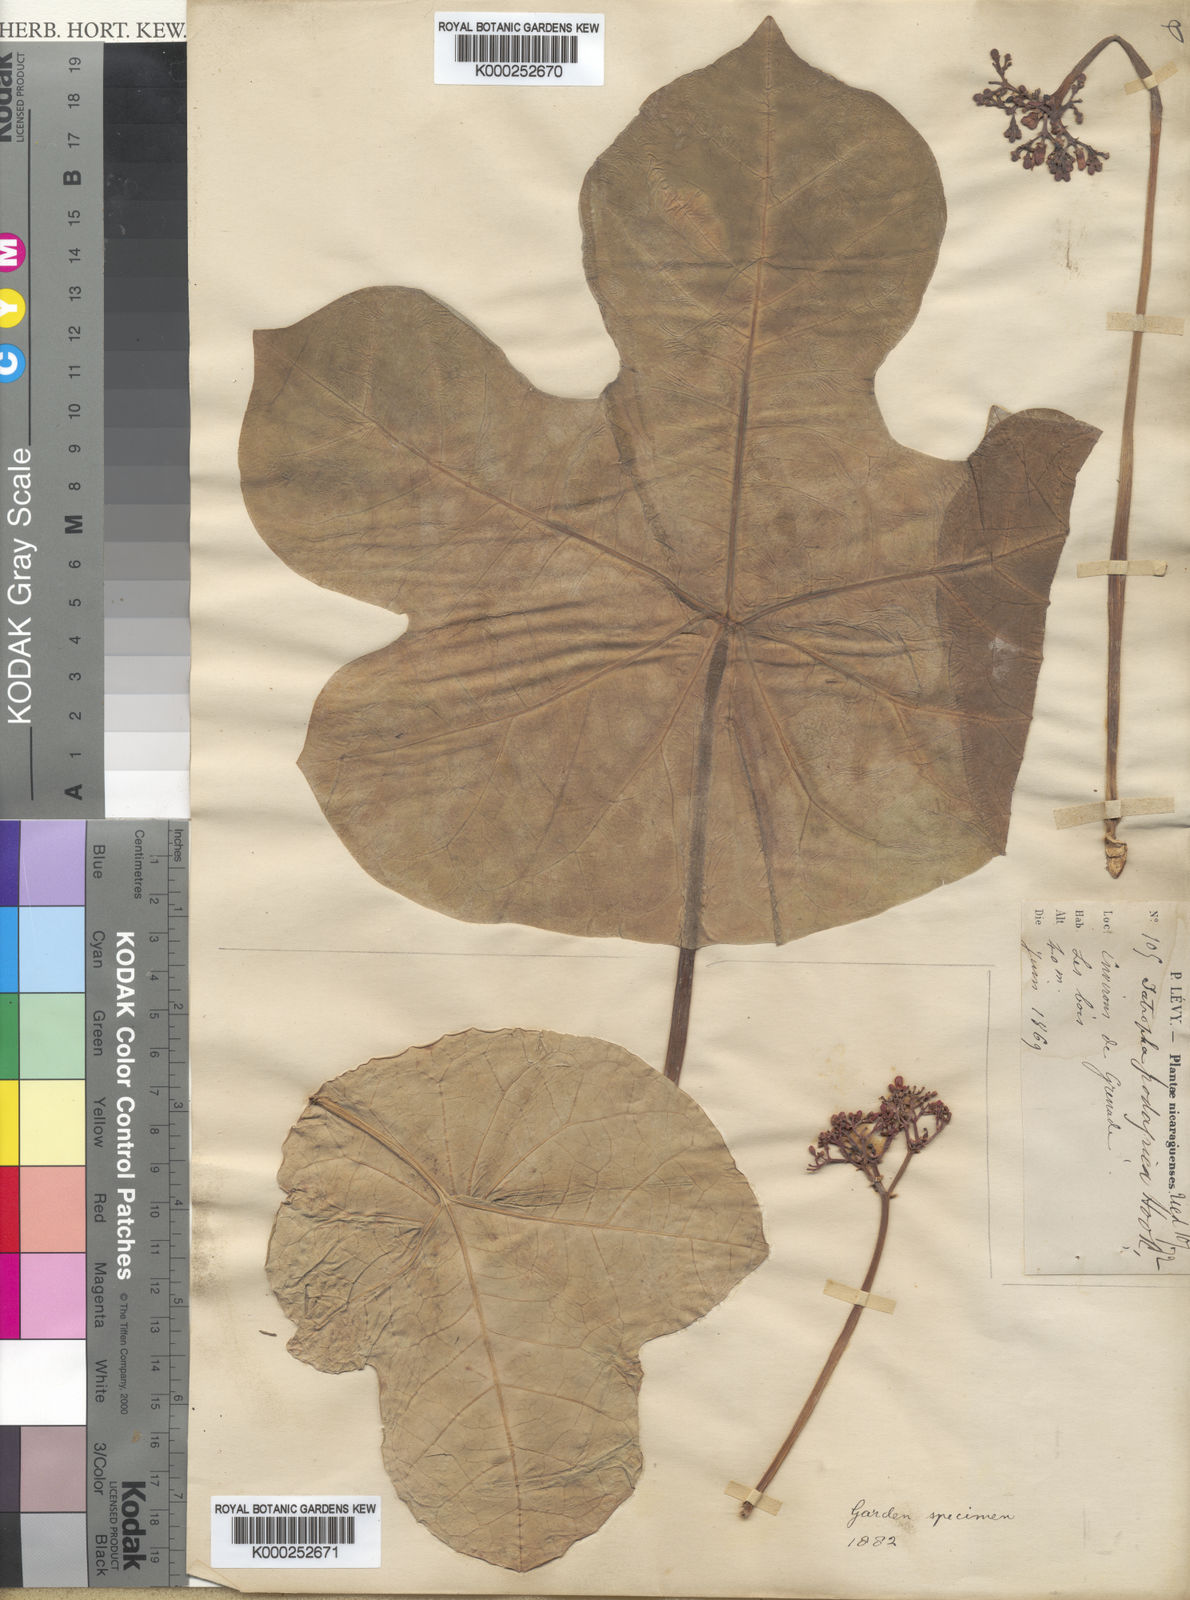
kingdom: Plantae
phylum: Tracheophyta
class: Magnoliopsida
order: Malpighiales
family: Euphorbiaceae
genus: Jatropha
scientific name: Jatropha podagrica
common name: Gout stalk
